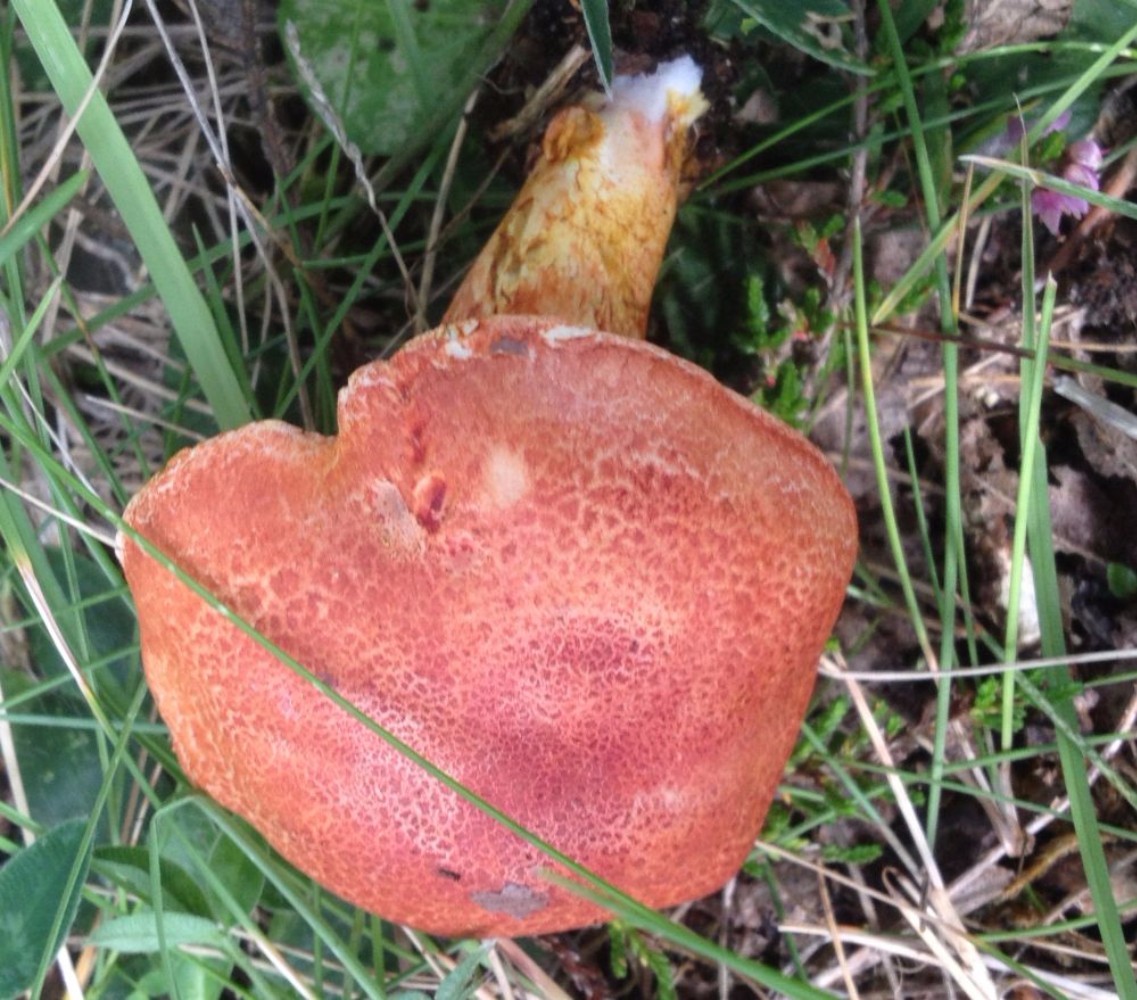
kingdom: Fungi
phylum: Basidiomycota
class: Agaricomycetes
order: Agaricales
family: Cortinariaceae
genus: Cortinarius
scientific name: Cortinarius bolaris
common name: cinnoberskællet slørhat
